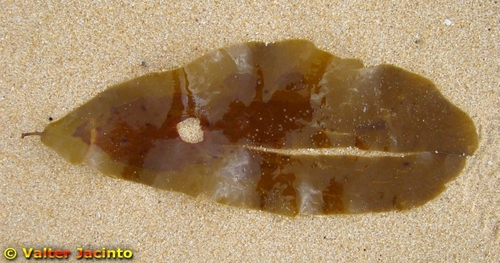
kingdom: Chromista
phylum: Ochrophyta
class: Phaeophyceae
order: Tilopteridales
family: Phyllariaceae
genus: Phyllariopsis
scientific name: Phyllariopsis
